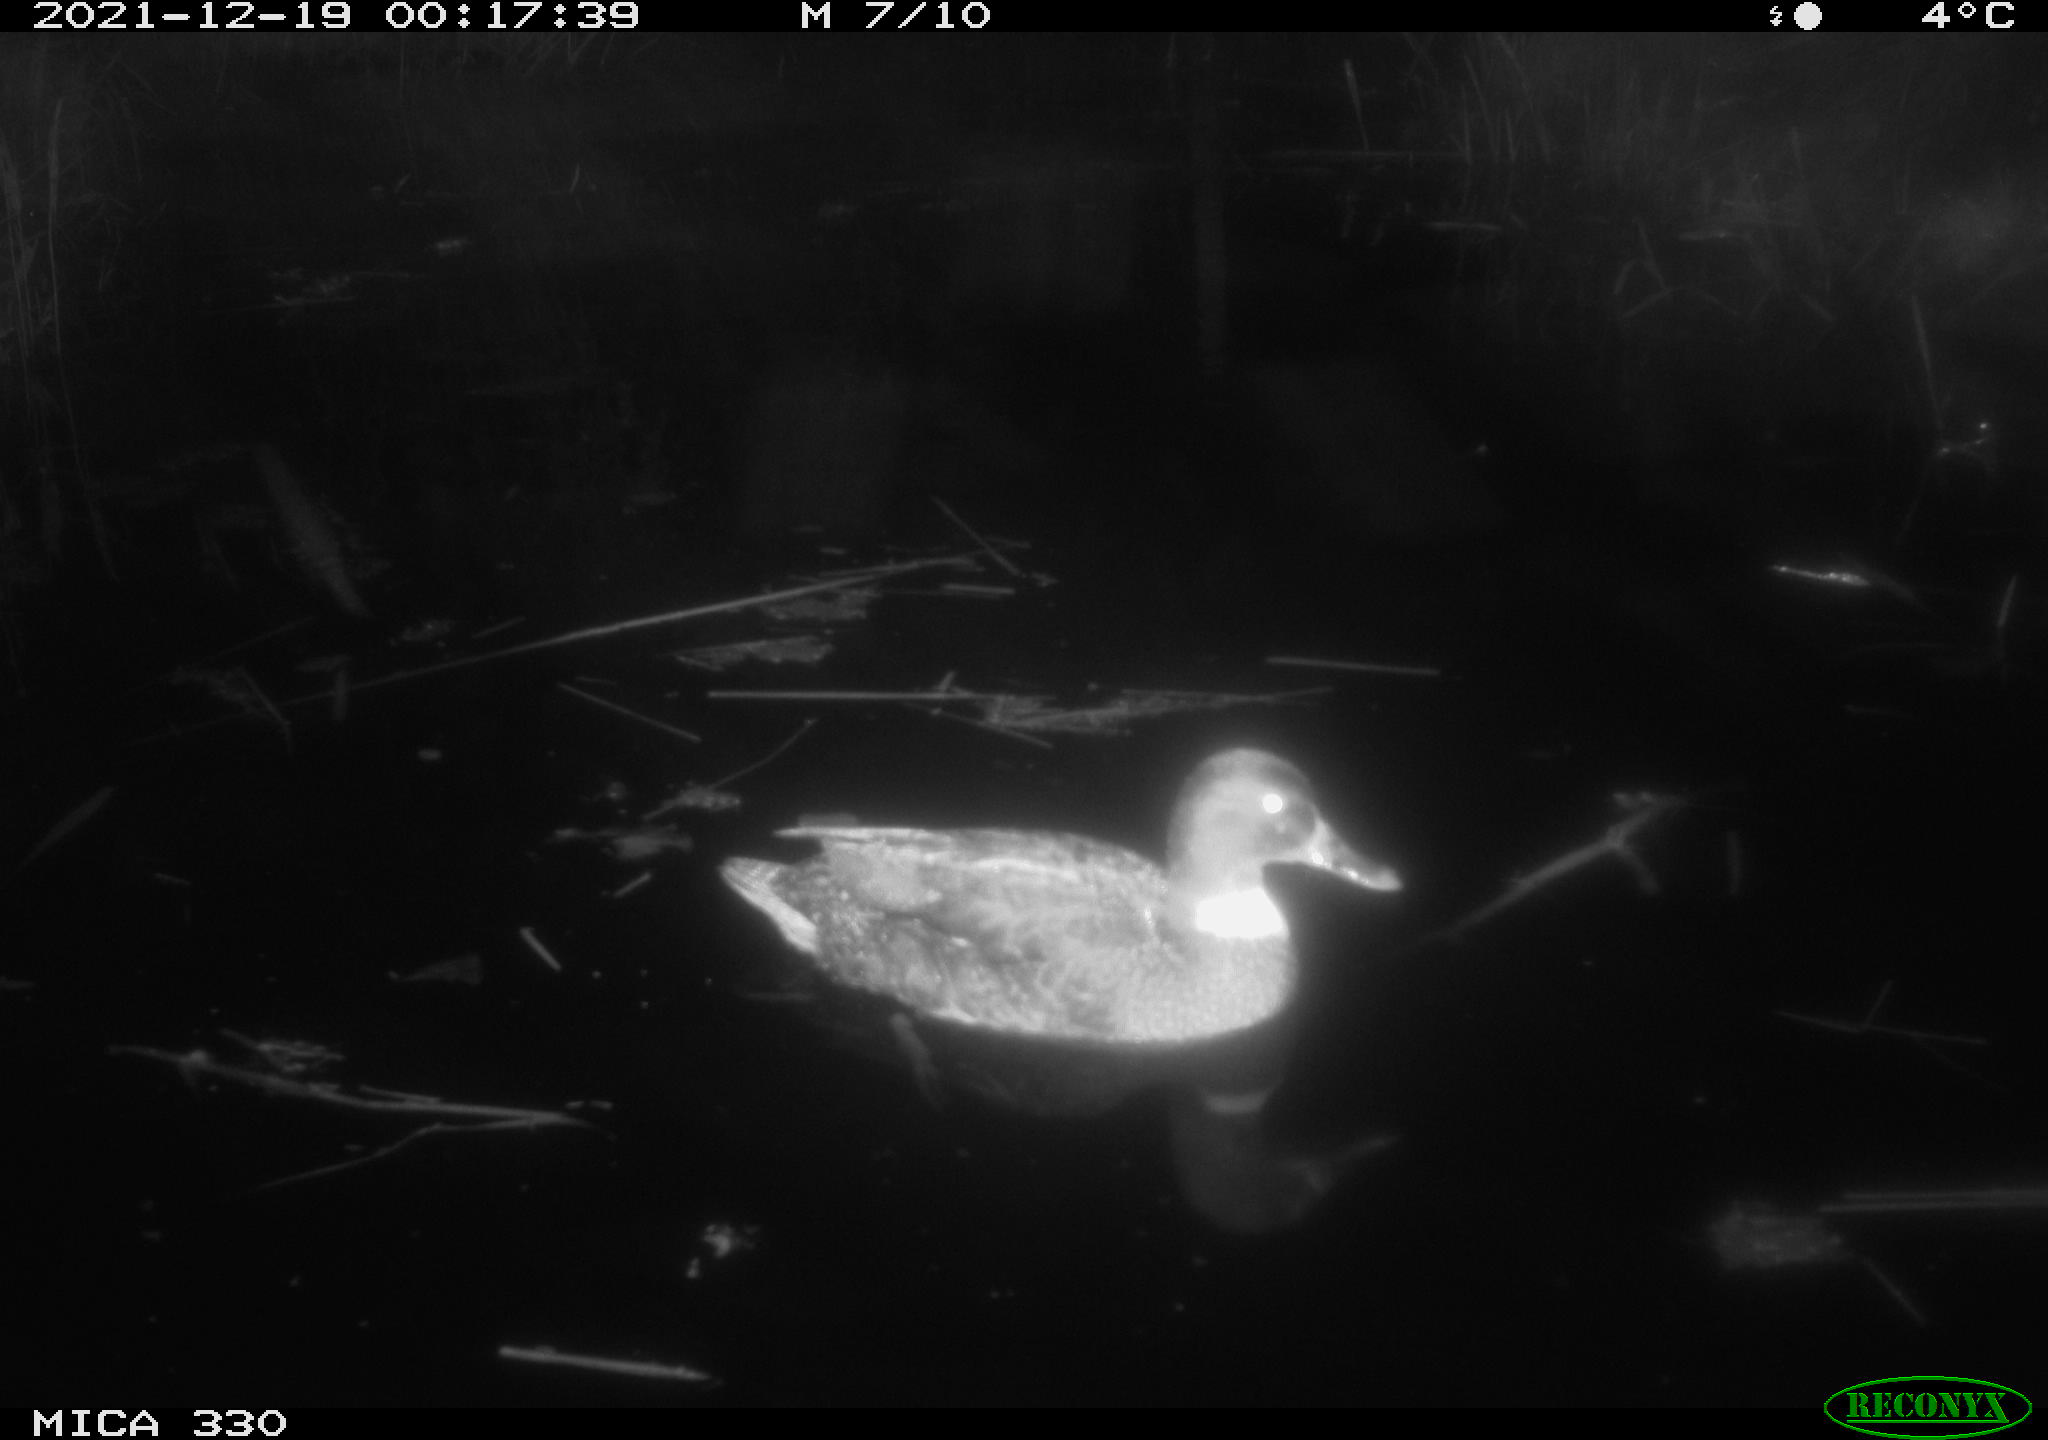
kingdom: Animalia
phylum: Chordata
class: Aves
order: Anseriformes
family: Anatidae
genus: Anas
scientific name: Anas platyrhynchos
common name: Mallard
